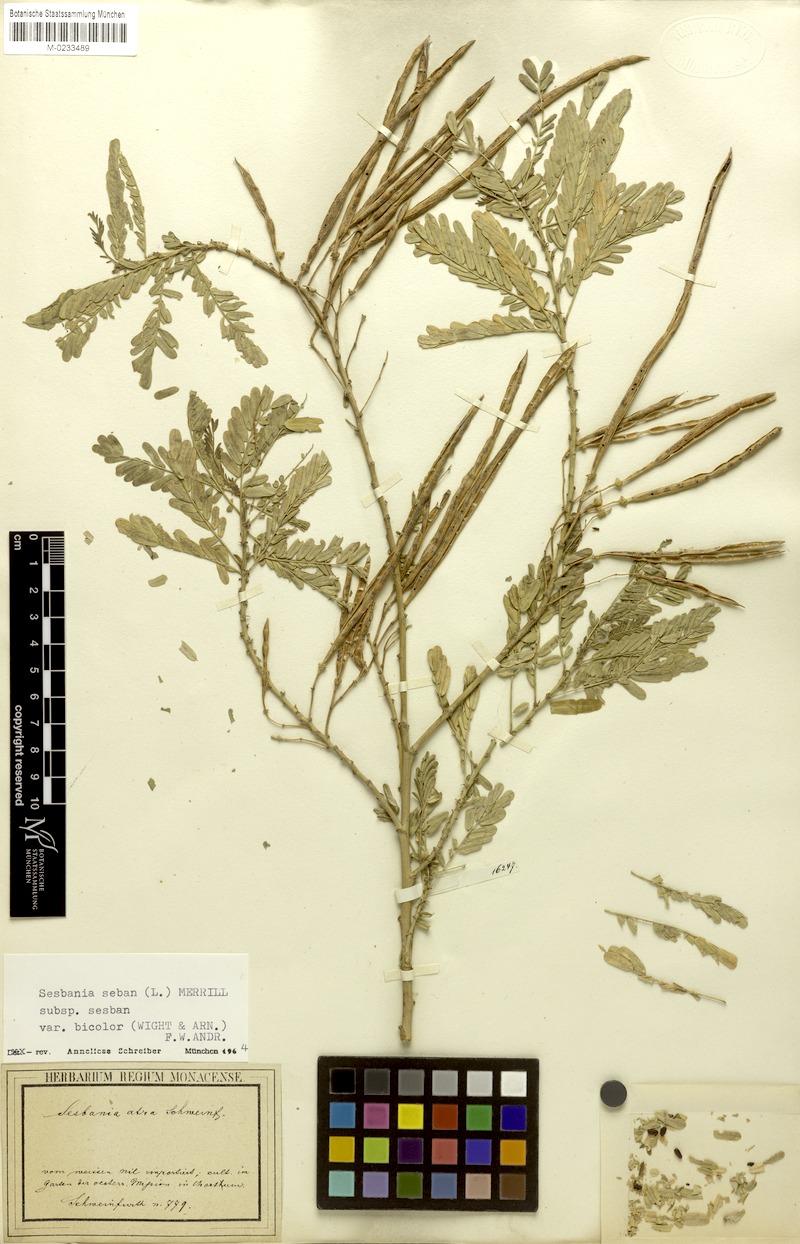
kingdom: Plantae
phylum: Tracheophyta
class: Magnoliopsida
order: Fabales
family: Fabaceae
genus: Sesbania
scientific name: Sesbania sesban
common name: Egyptian sesban
